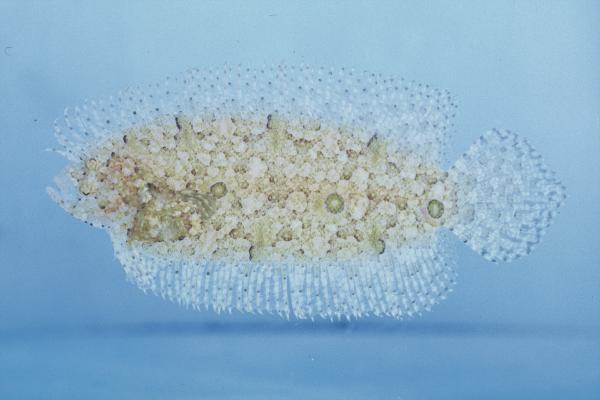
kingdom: Animalia
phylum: Chordata
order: Pleuronectiformes
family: Samaridae
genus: Samariscus
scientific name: Samariscus triocellatus
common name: Three-spot righteye flounder
